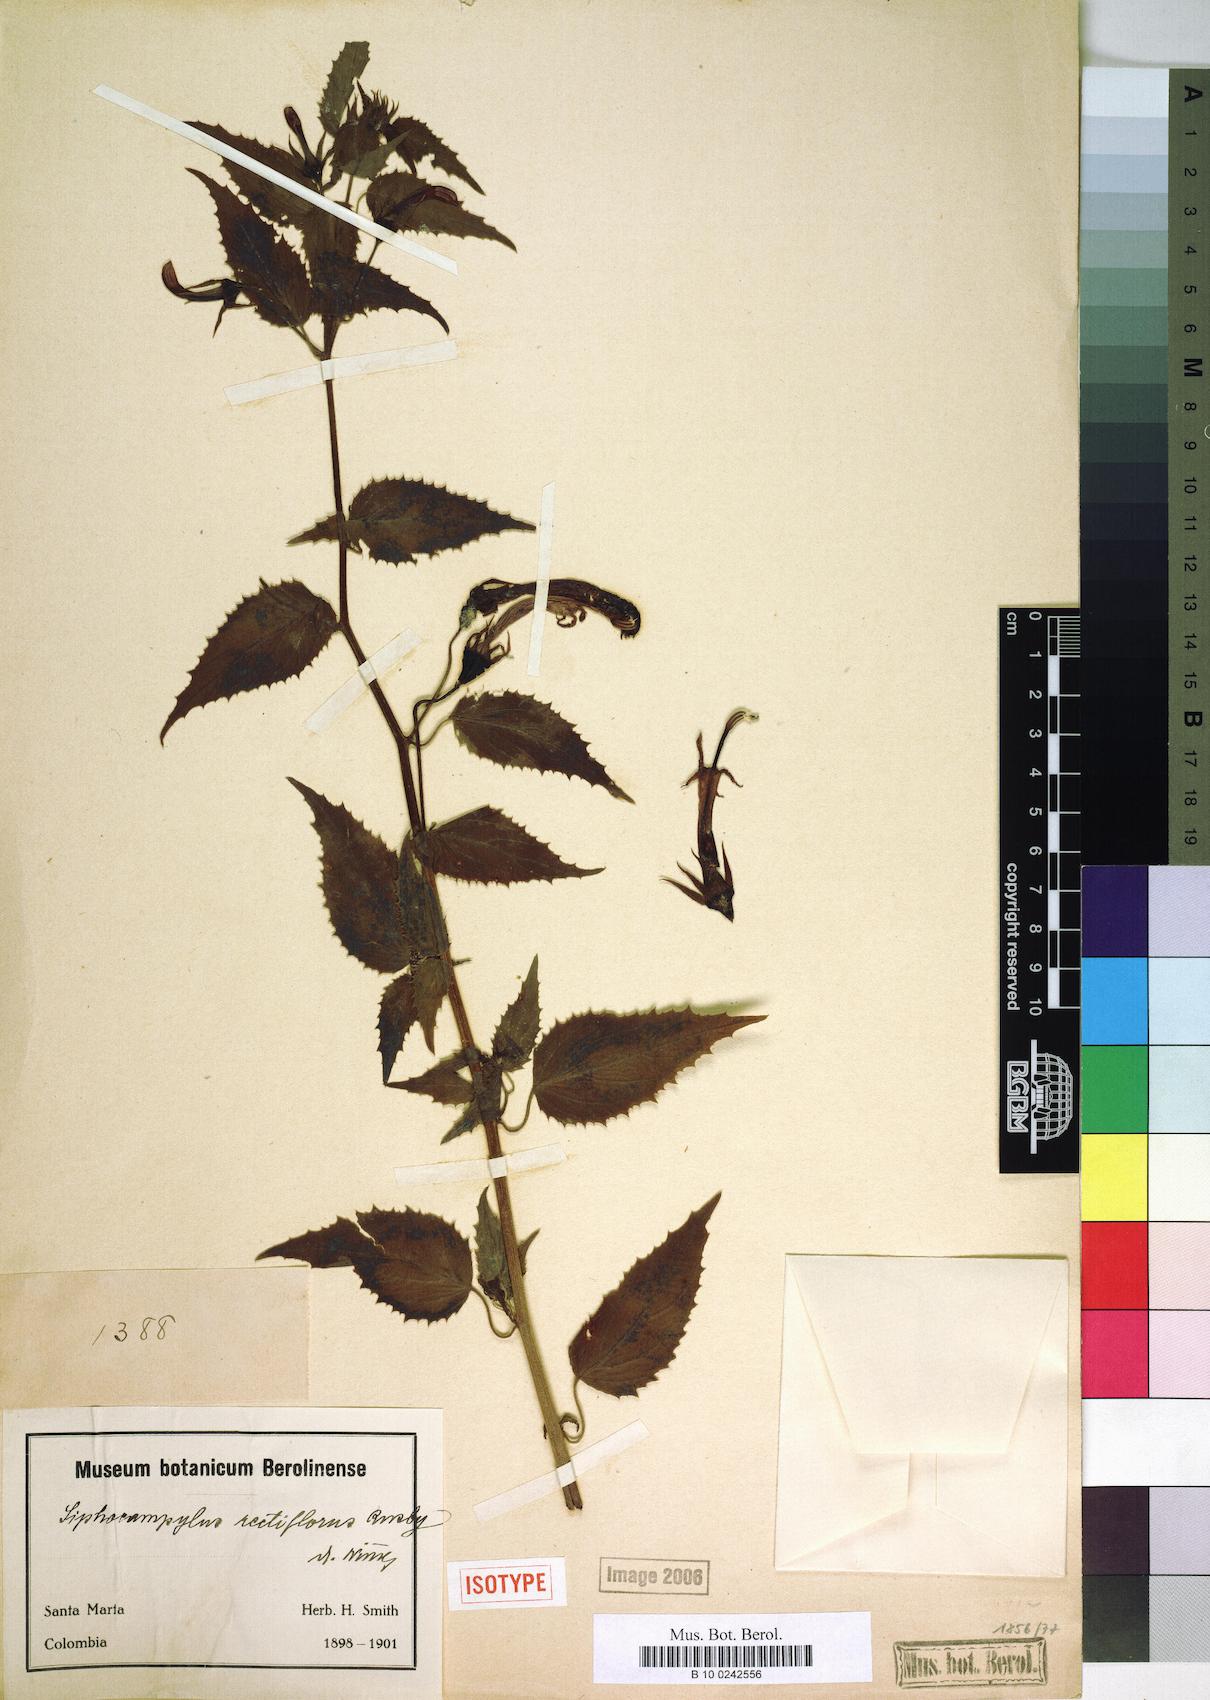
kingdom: Plantae
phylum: Tracheophyta
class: Magnoliopsida
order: Asterales
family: Campanulaceae
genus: Siphocampylus
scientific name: Siphocampylus rectiflorus
